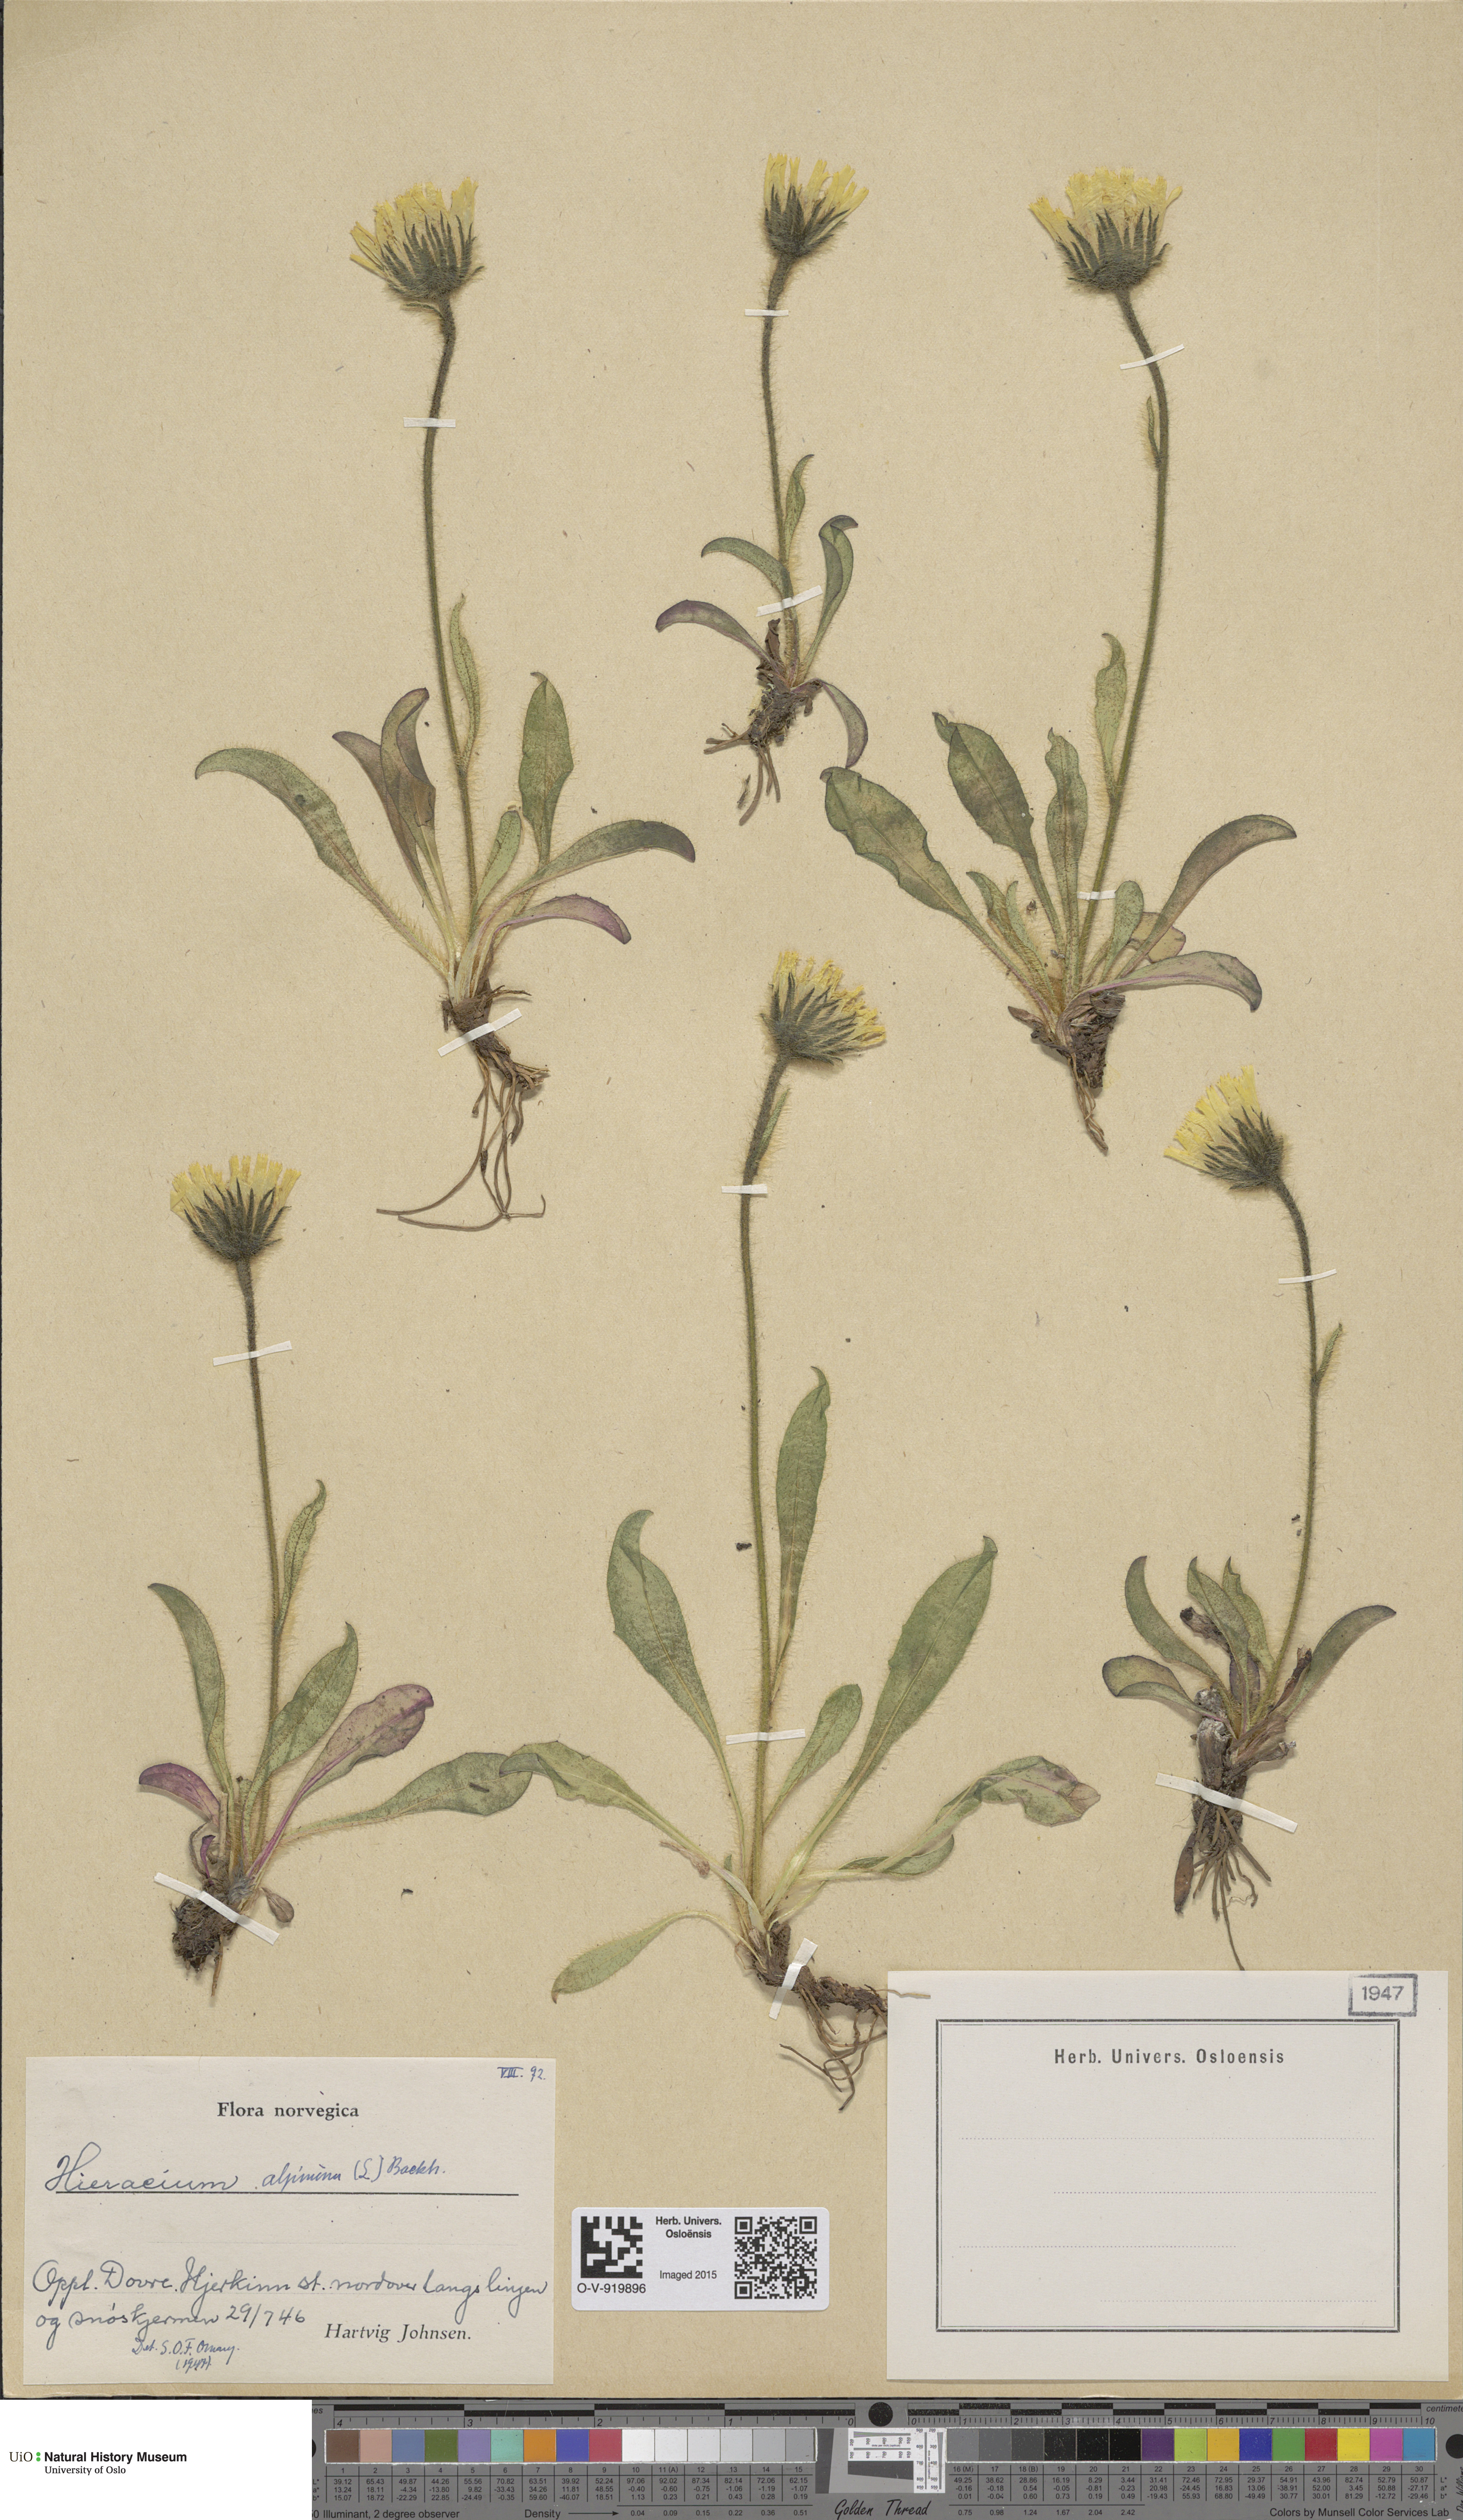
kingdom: Plantae
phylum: Tracheophyta
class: Magnoliopsida
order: Asterales
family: Asteraceae
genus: Hieracium
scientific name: Hieracium alpinum
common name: Alpine hawkweed
